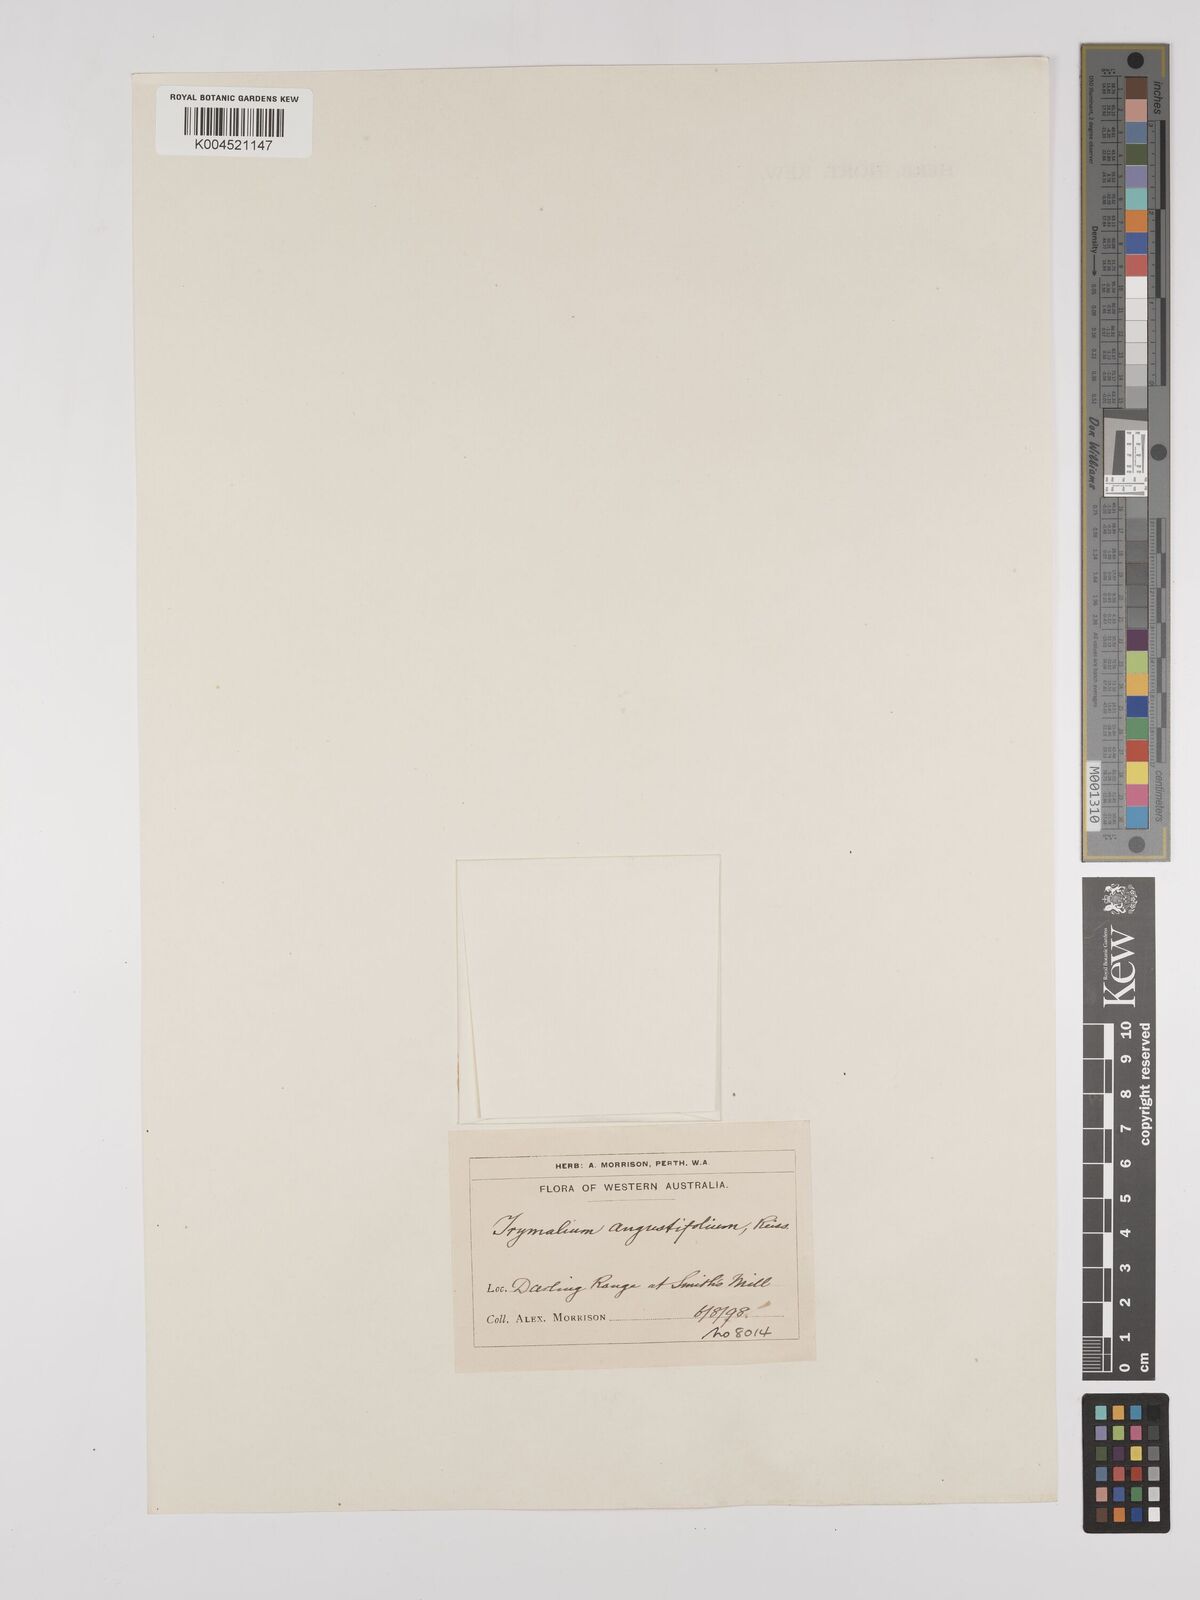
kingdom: Plantae
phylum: Tracheophyta
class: Magnoliopsida
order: Rosales
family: Rhamnaceae
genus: Trymalium
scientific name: Trymalium angustifolium
